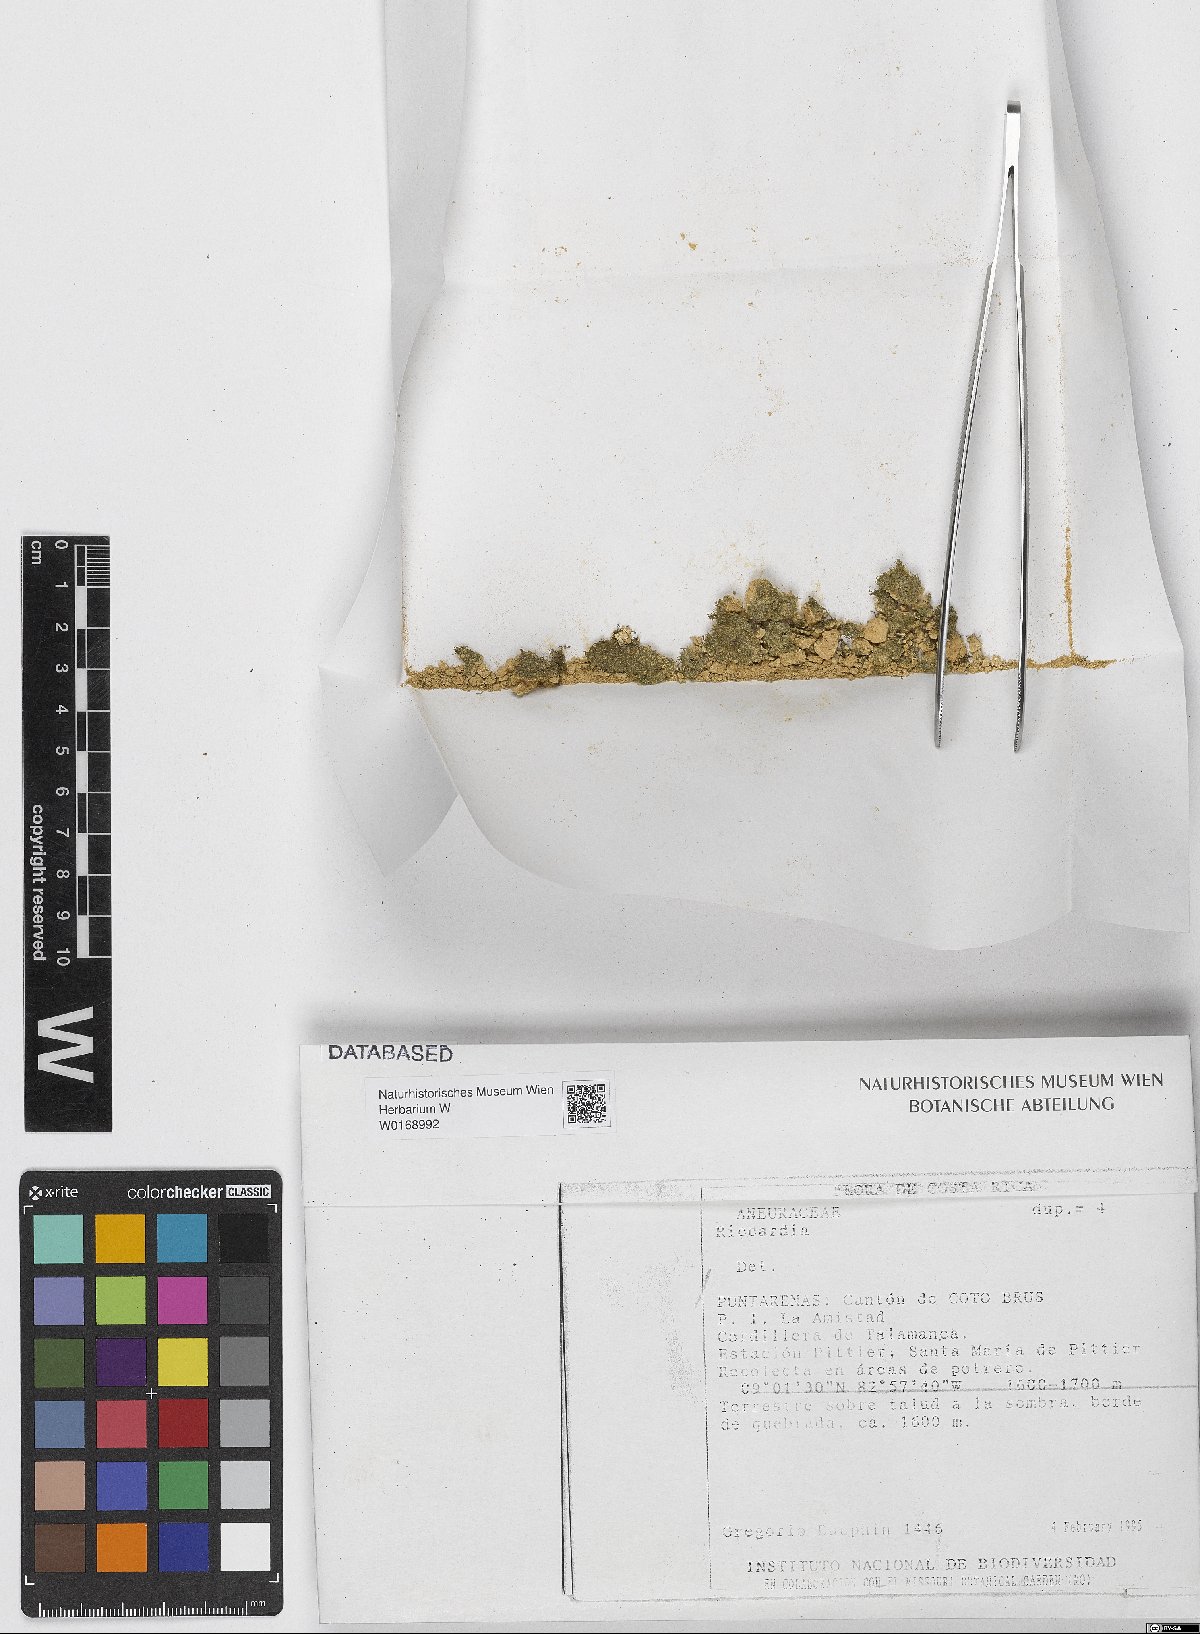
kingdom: Plantae
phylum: Marchantiophyta
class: Jungermanniopsida
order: Metzgeriales
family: Aneuraceae
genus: Riccardia
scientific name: Riccardia
